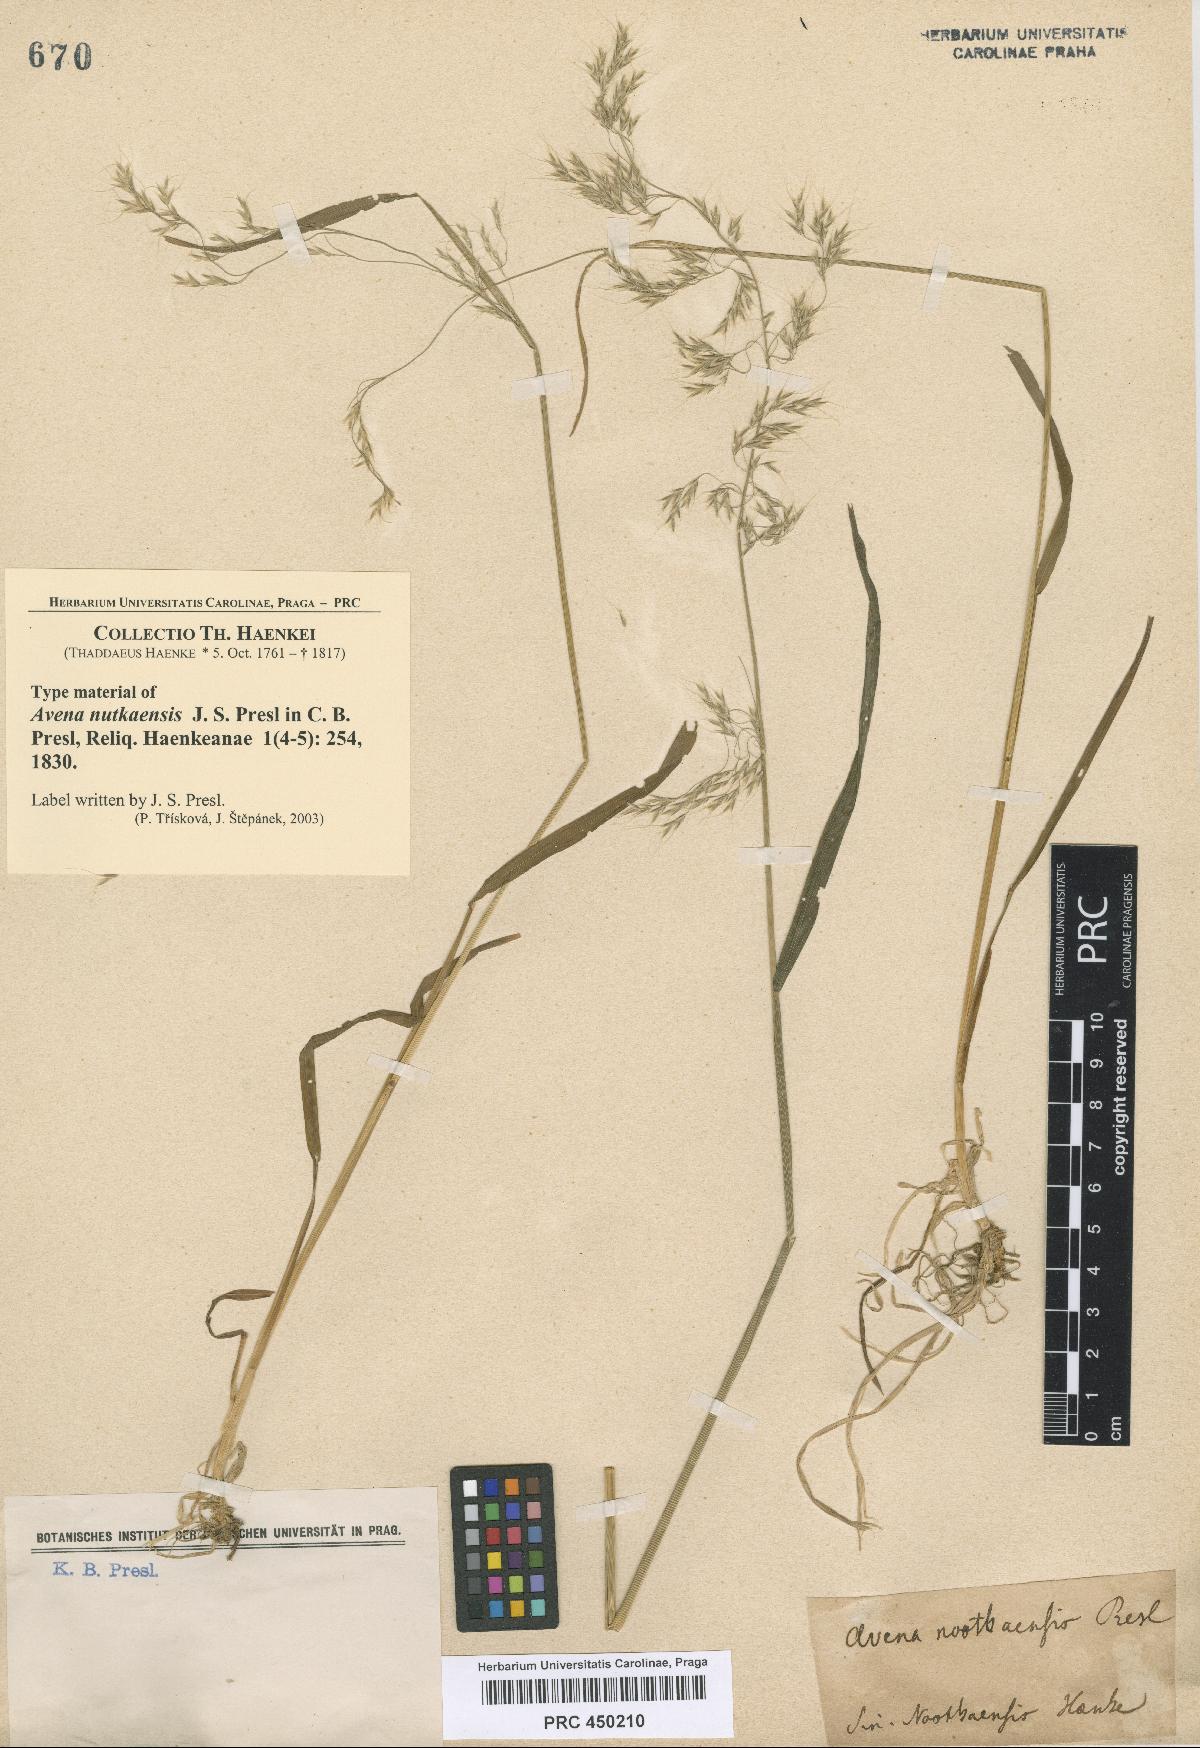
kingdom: Plantae
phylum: Tracheophyta
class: Liliopsida
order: Poales
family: Poaceae
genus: Graphephorum
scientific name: Graphephorum cernuum
